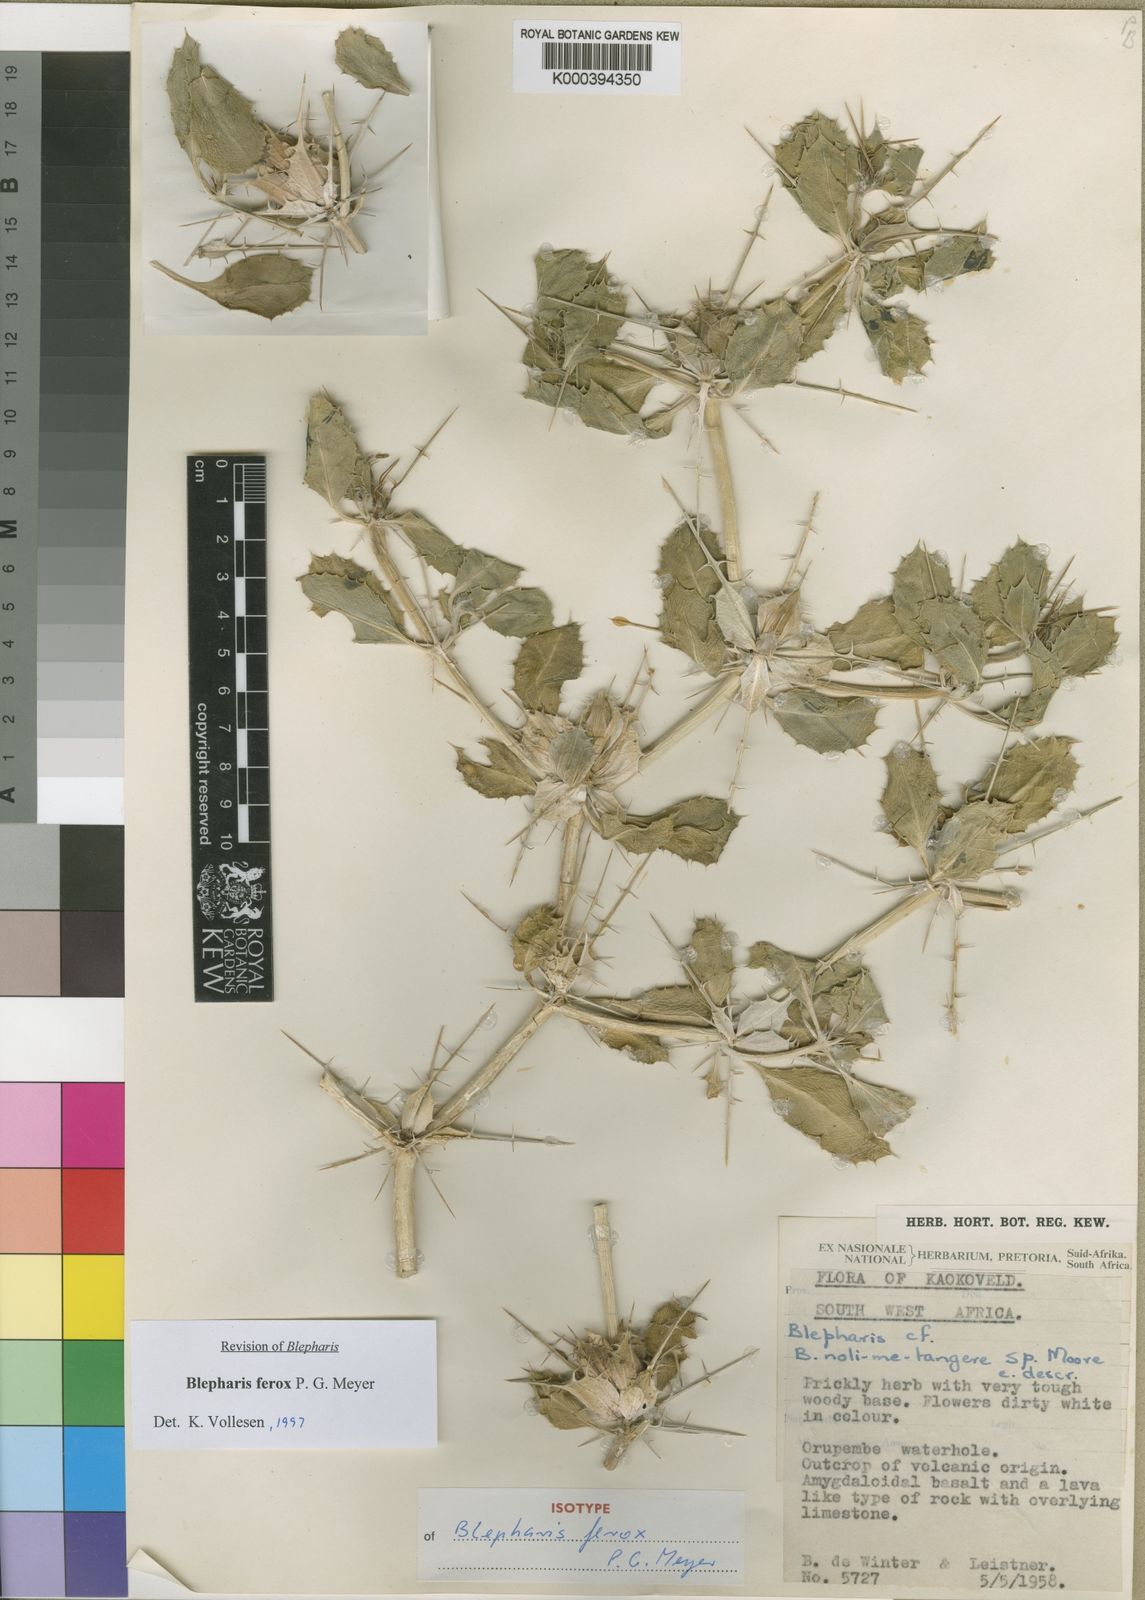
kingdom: Plantae
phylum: Tracheophyta
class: Magnoliopsida
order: Lamiales
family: Acanthaceae
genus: Blepharis
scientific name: Blepharis ferox
